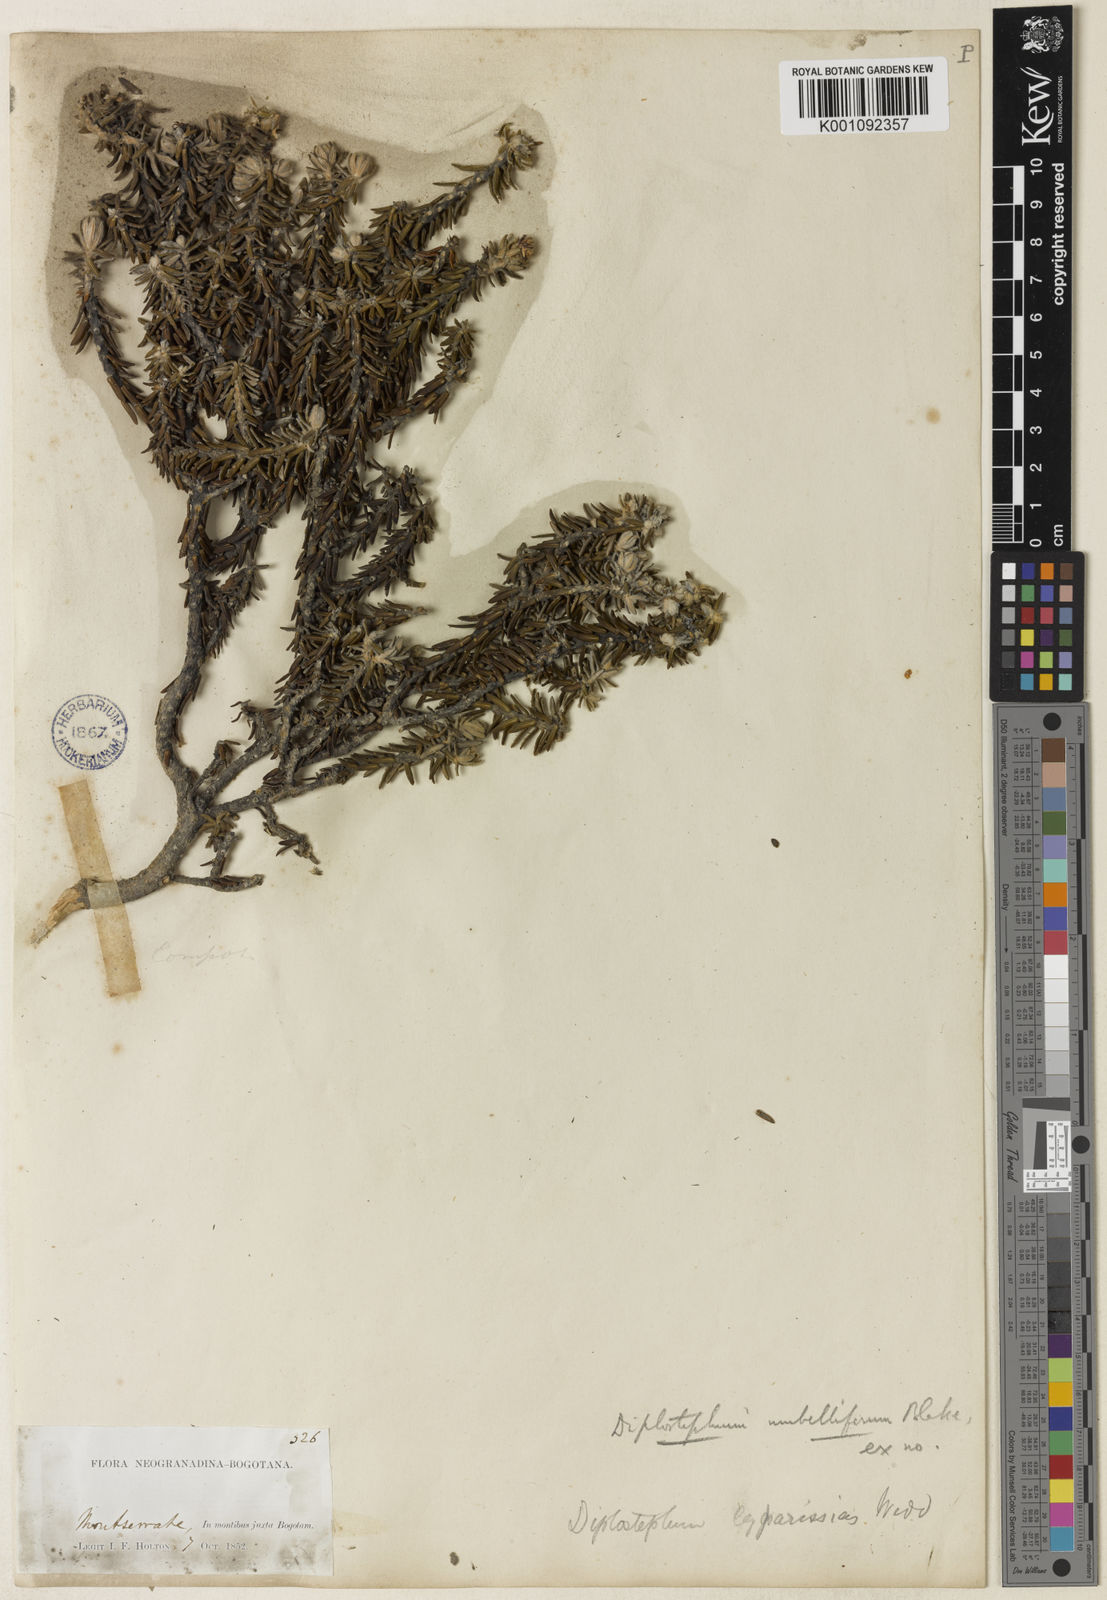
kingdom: Plantae
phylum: Tracheophyta
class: Magnoliopsida
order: Asterales
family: Asteraceae
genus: Linochilus
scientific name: Linochilus phylicoides
